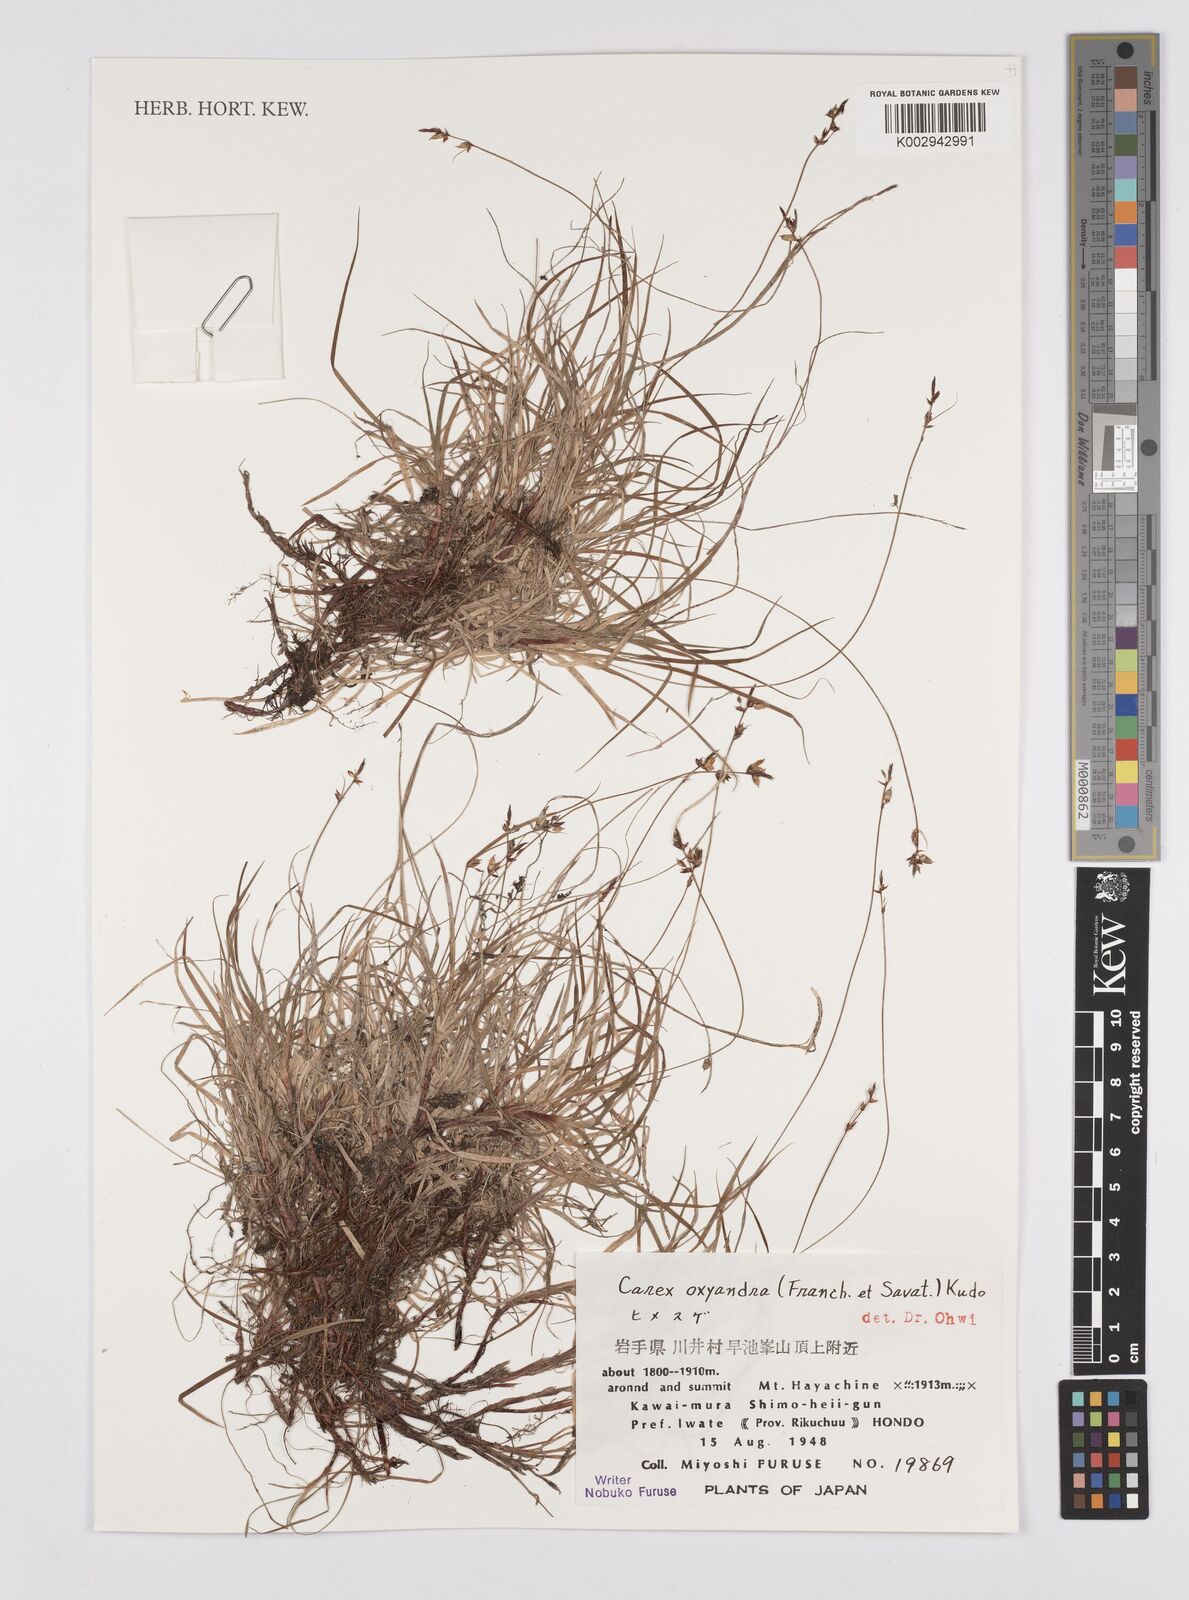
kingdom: Plantae
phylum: Tracheophyta
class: Liliopsida
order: Poales
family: Cyperaceae
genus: Carex
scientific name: Carex oxyandra
